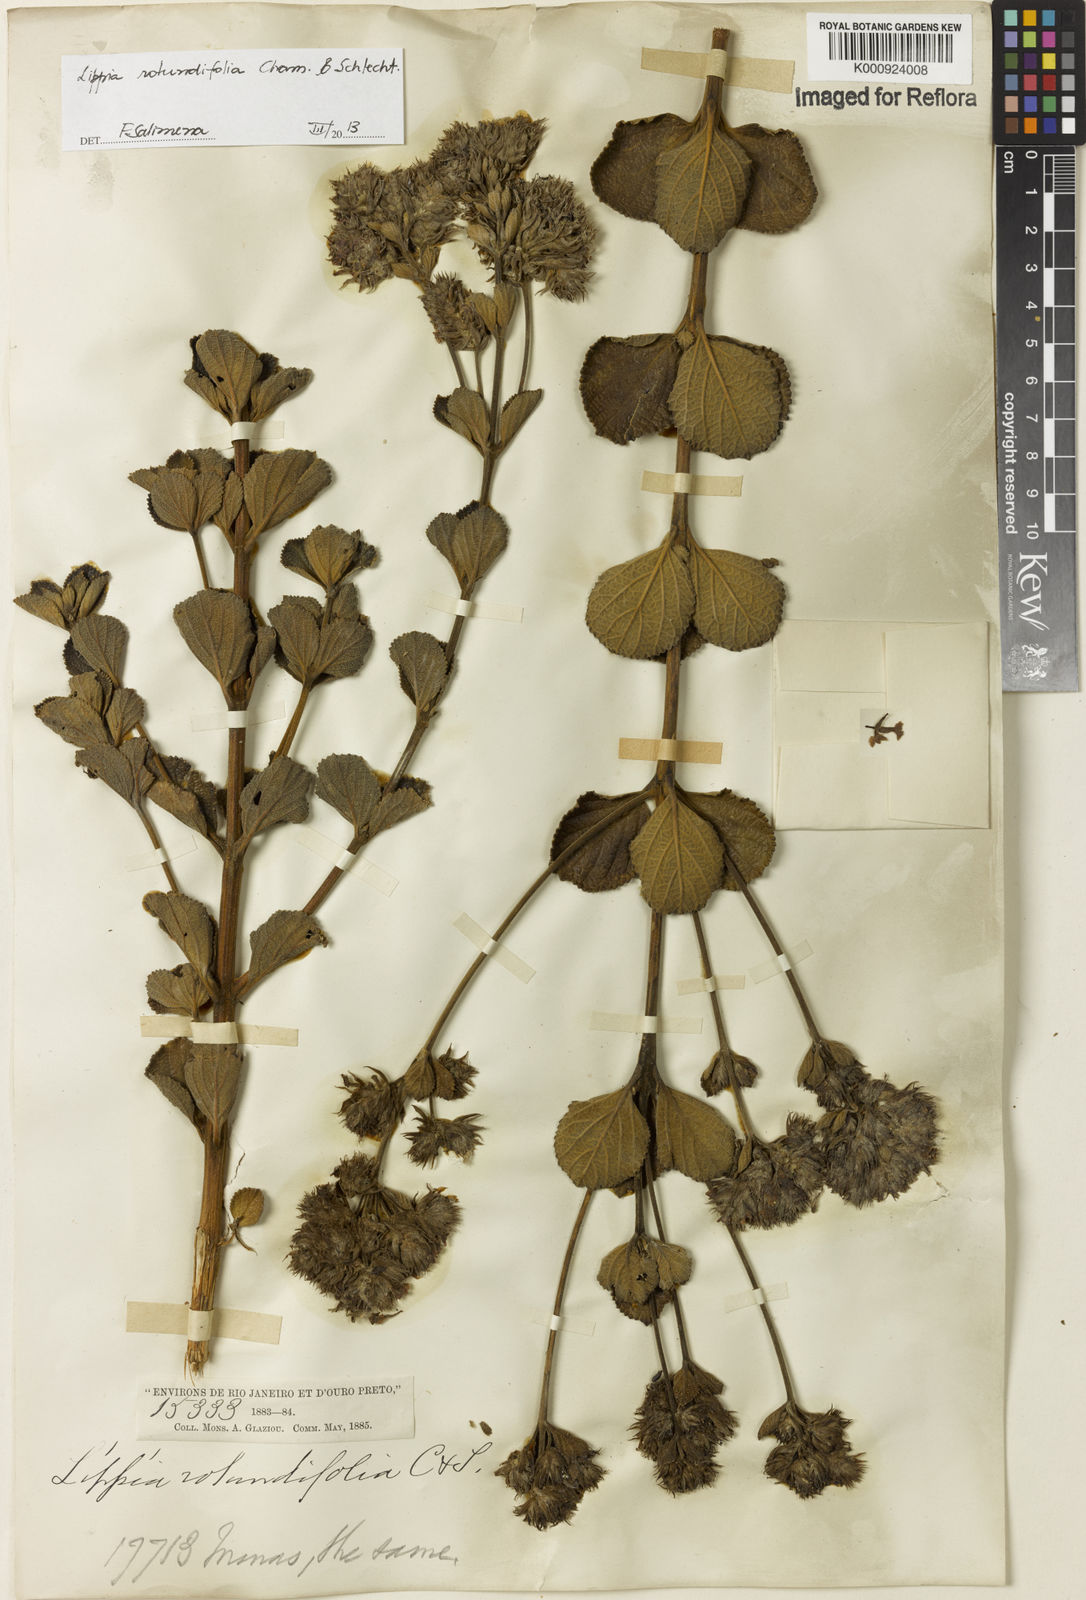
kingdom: Plantae
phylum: Tracheophyta
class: Magnoliopsida
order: Lamiales
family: Verbenaceae
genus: Lippia
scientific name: Lippia rotundifolia
